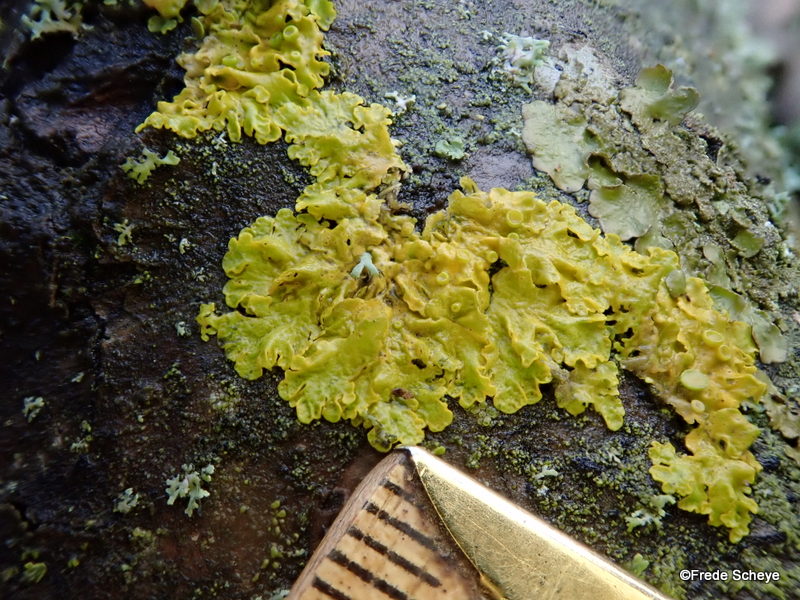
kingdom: Fungi
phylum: Ascomycota
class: Lecanoromycetes
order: Teloschistales
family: Teloschistaceae
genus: Xanthoria
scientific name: Xanthoria parietina
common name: almindelig væggelav
